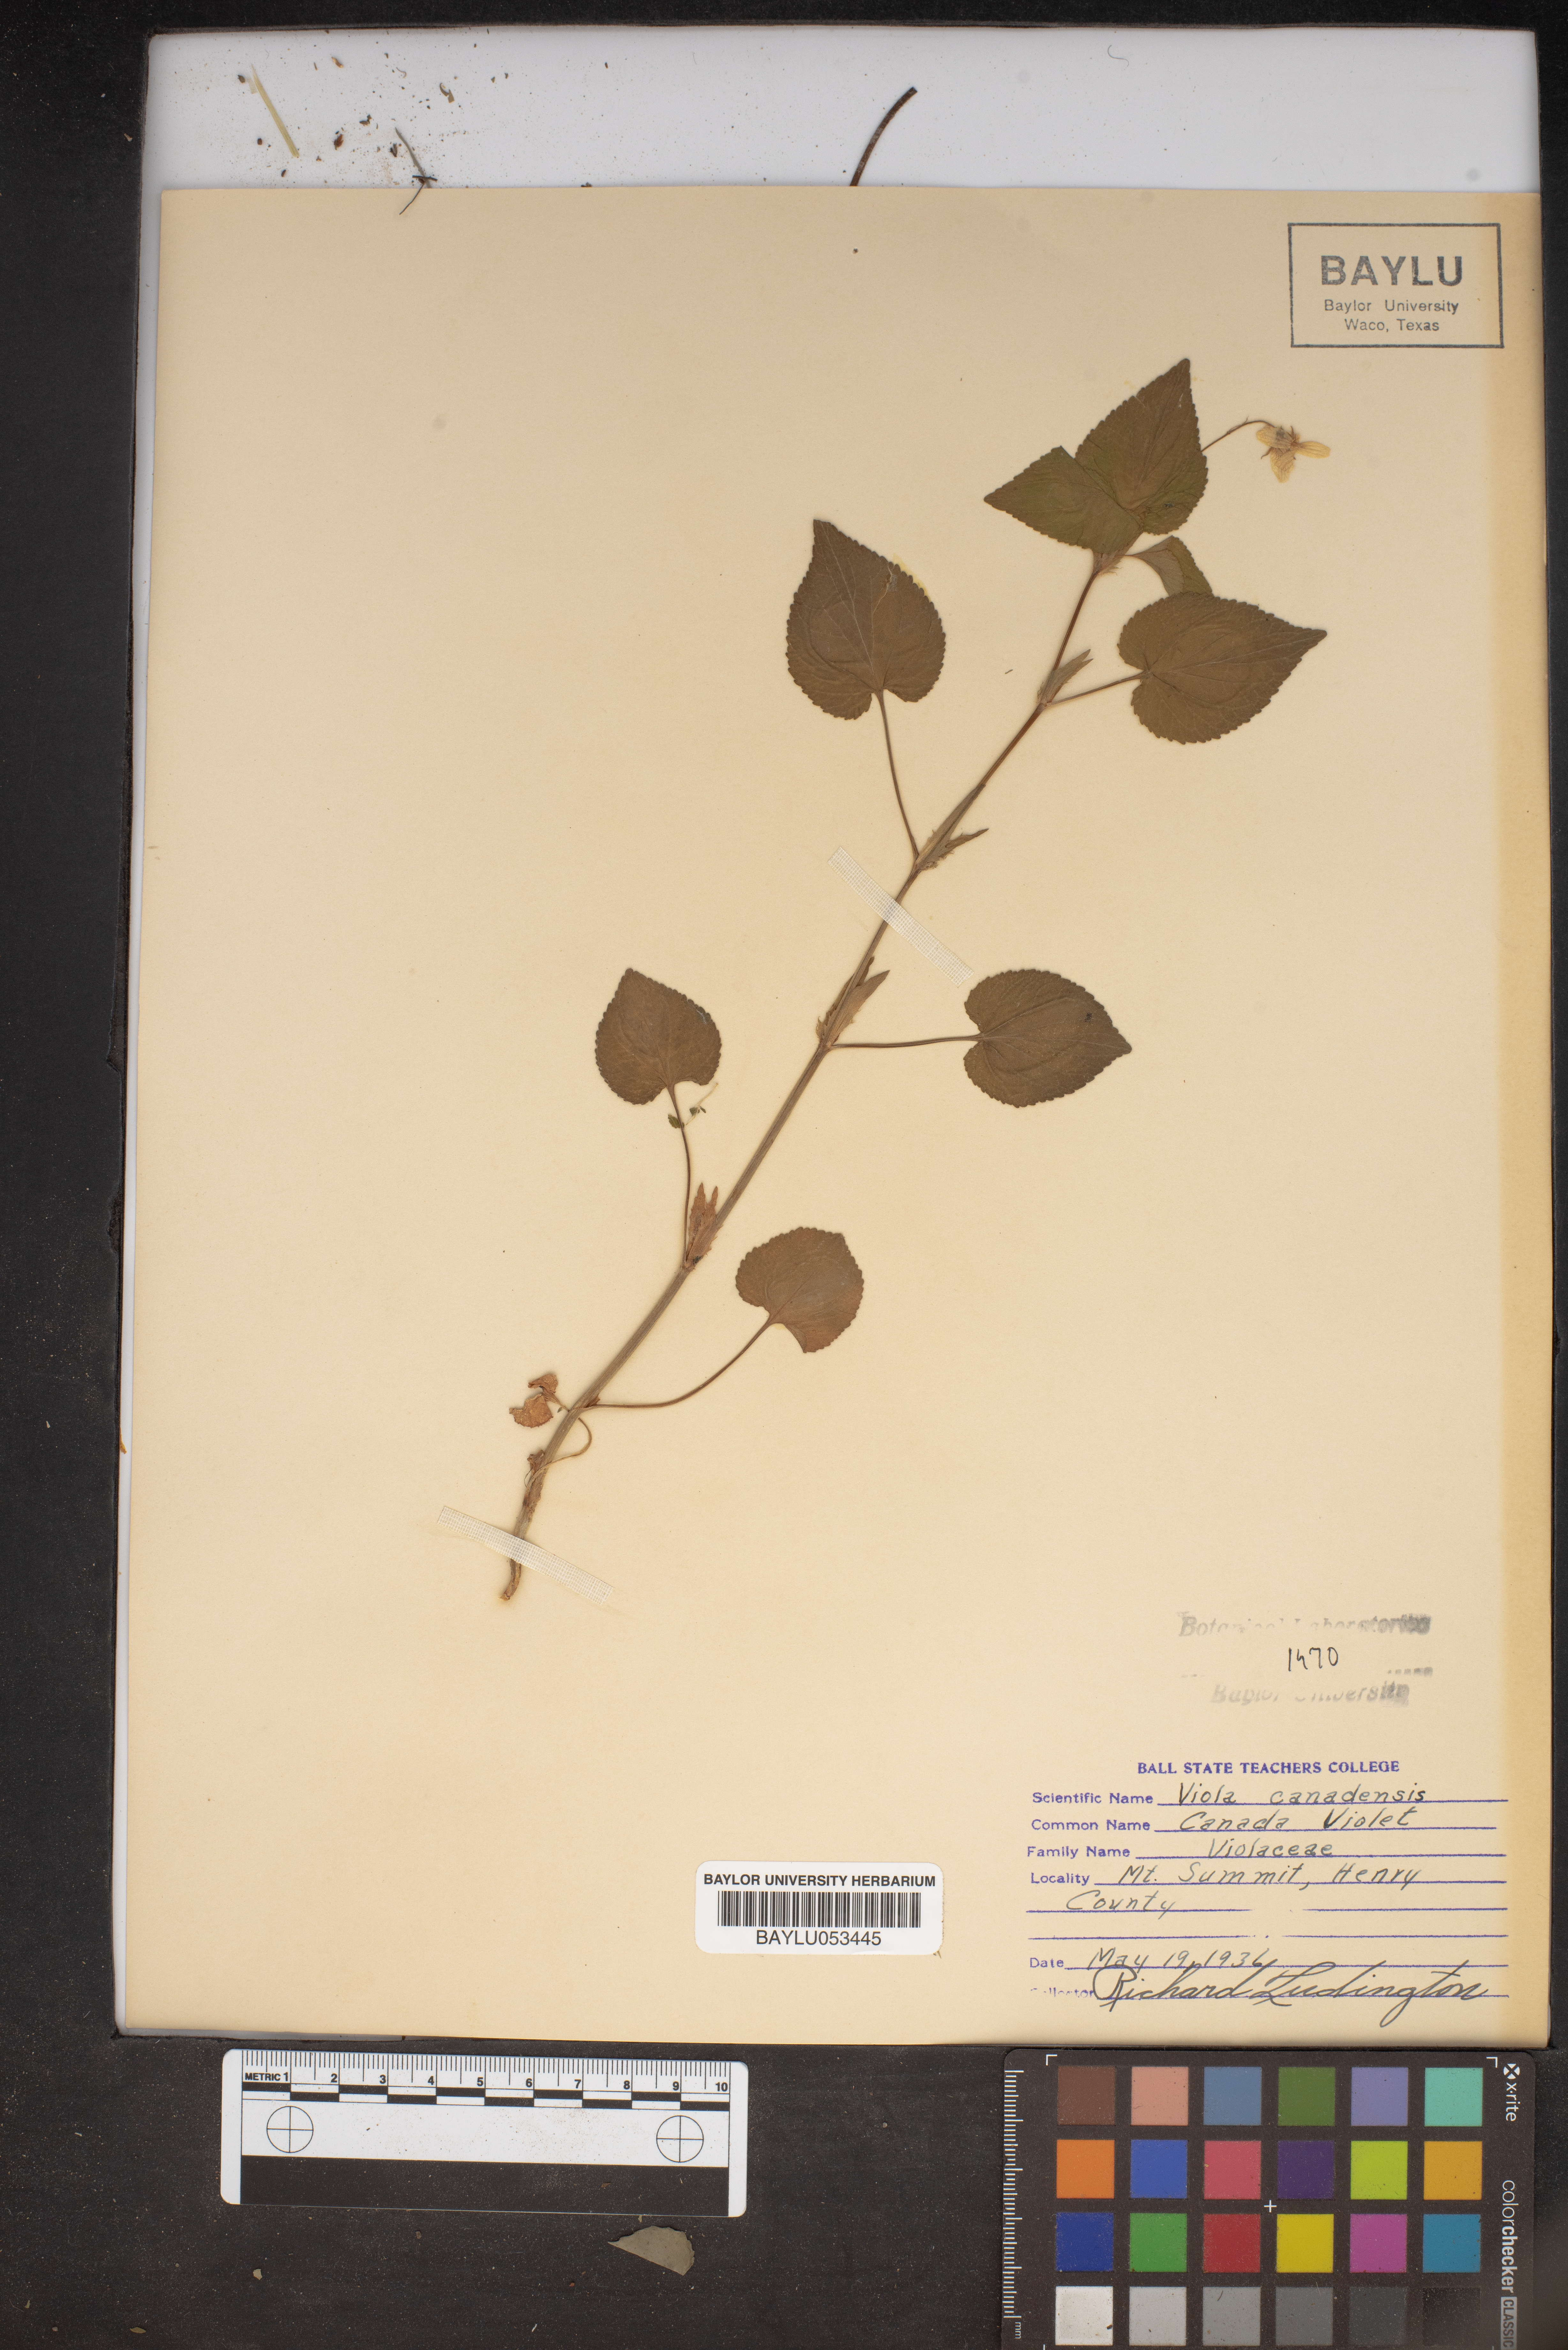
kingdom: Plantae
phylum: Tracheophyta
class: Magnoliopsida
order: Malpighiales
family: Violaceae
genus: Viola
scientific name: Viola canadensis
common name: Canada violet
